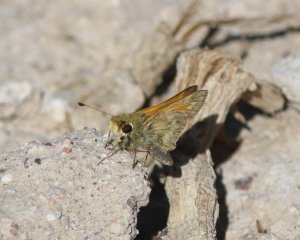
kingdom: Animalia
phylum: Arthropoda
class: Insecta
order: Lepidoptera
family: Hesperiidae
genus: Atalopedes
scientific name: Atalopedes campestris
